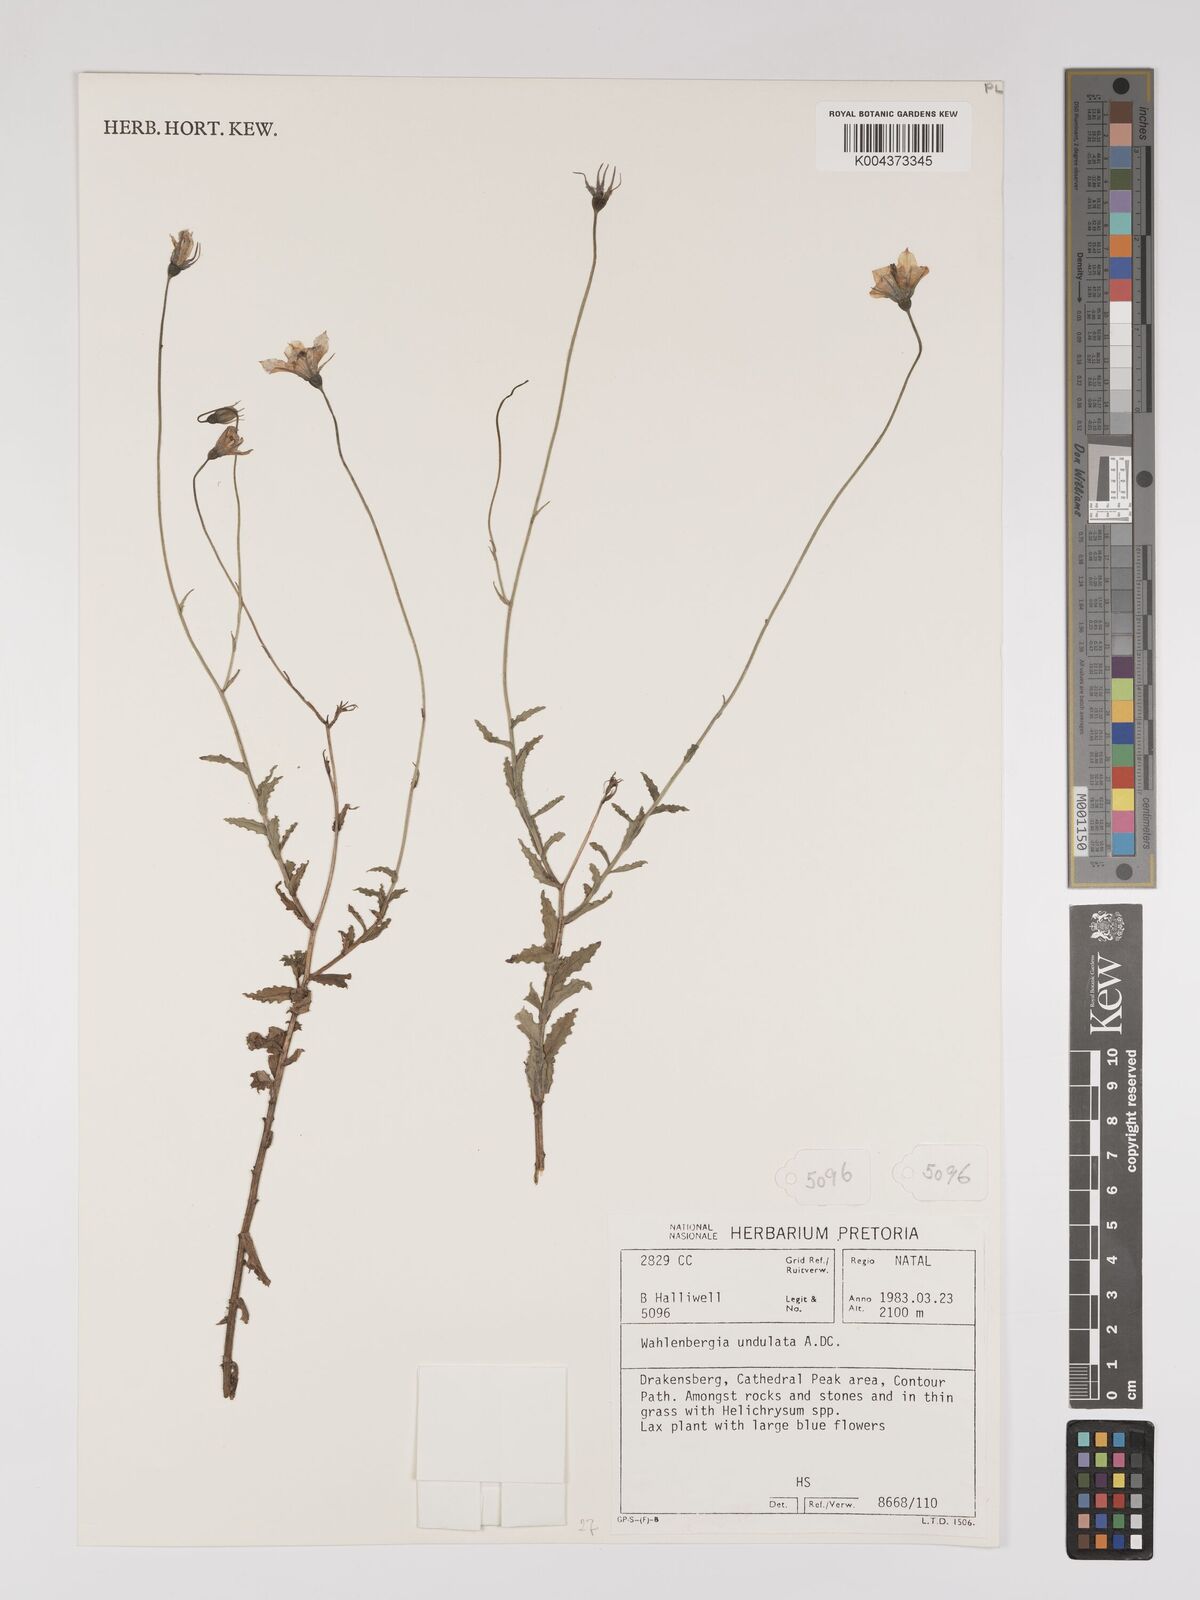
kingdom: Plantae
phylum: Tracheophyta
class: Magnoliopsida
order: Asterales
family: Campanulaceae
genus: Wahlenbergia
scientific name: Wahlenbergia undulata
